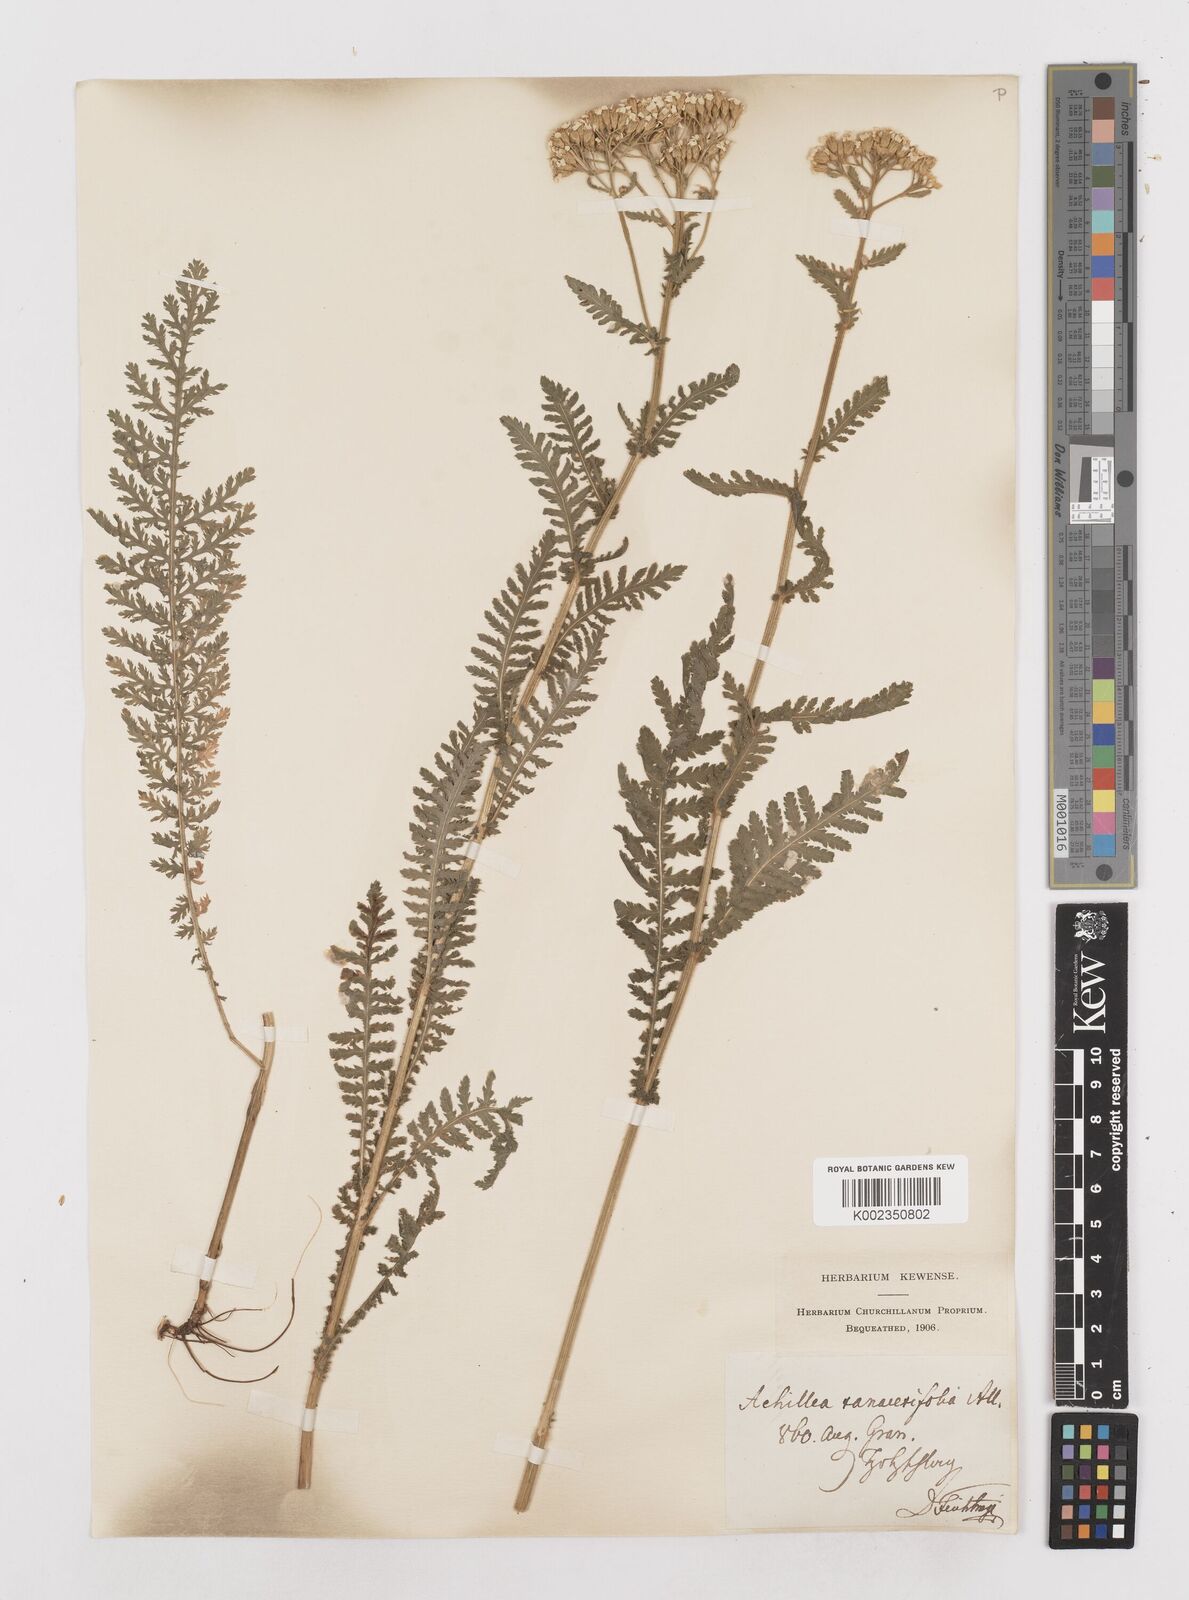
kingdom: Plantae
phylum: Tracheophyta
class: Magnoliopsida
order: Asterales
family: Asteraceae
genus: Achillea
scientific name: Achillea distans
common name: Tall yarrow
